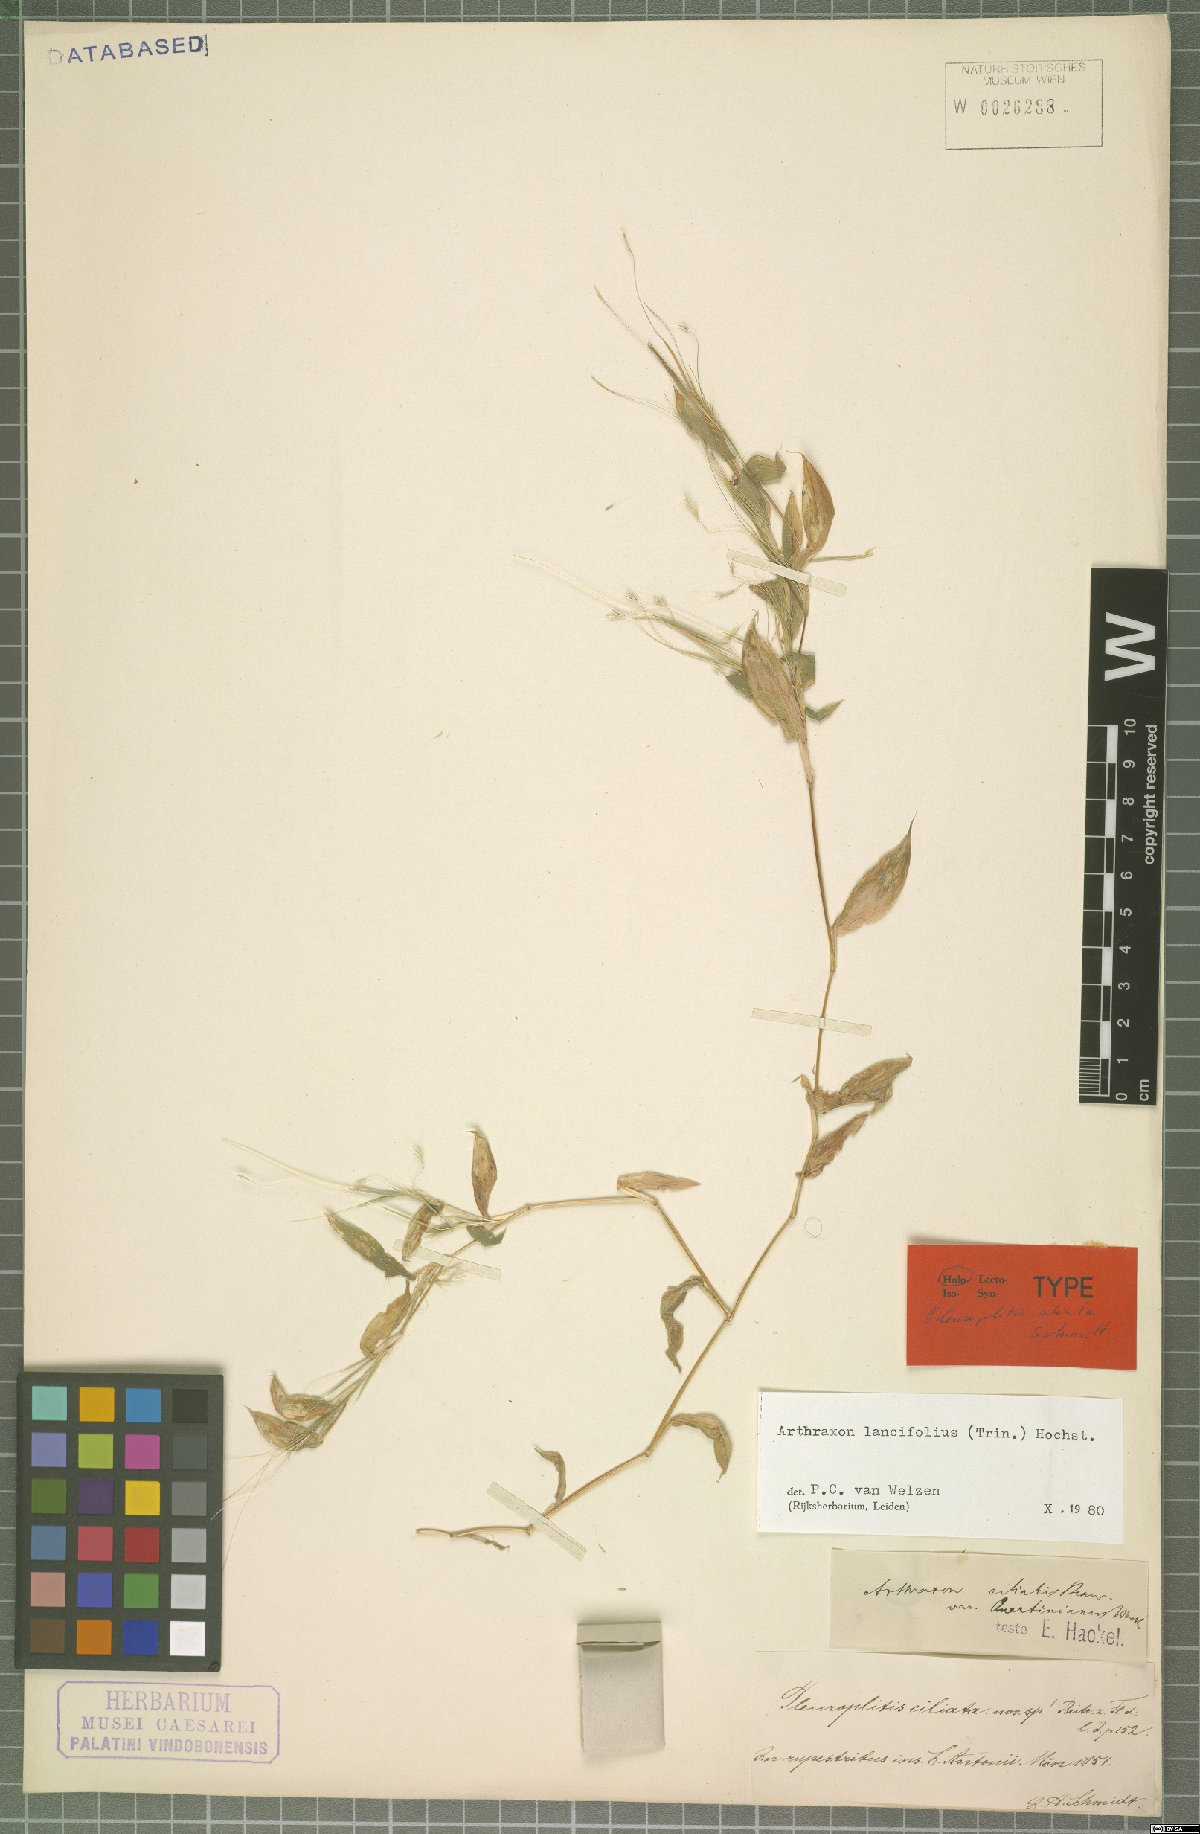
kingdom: Plantae
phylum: Tracheophyta
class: Liliopsida
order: Poales
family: Poaceae
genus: Arthraxon
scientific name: Arthraxon lancifolius
